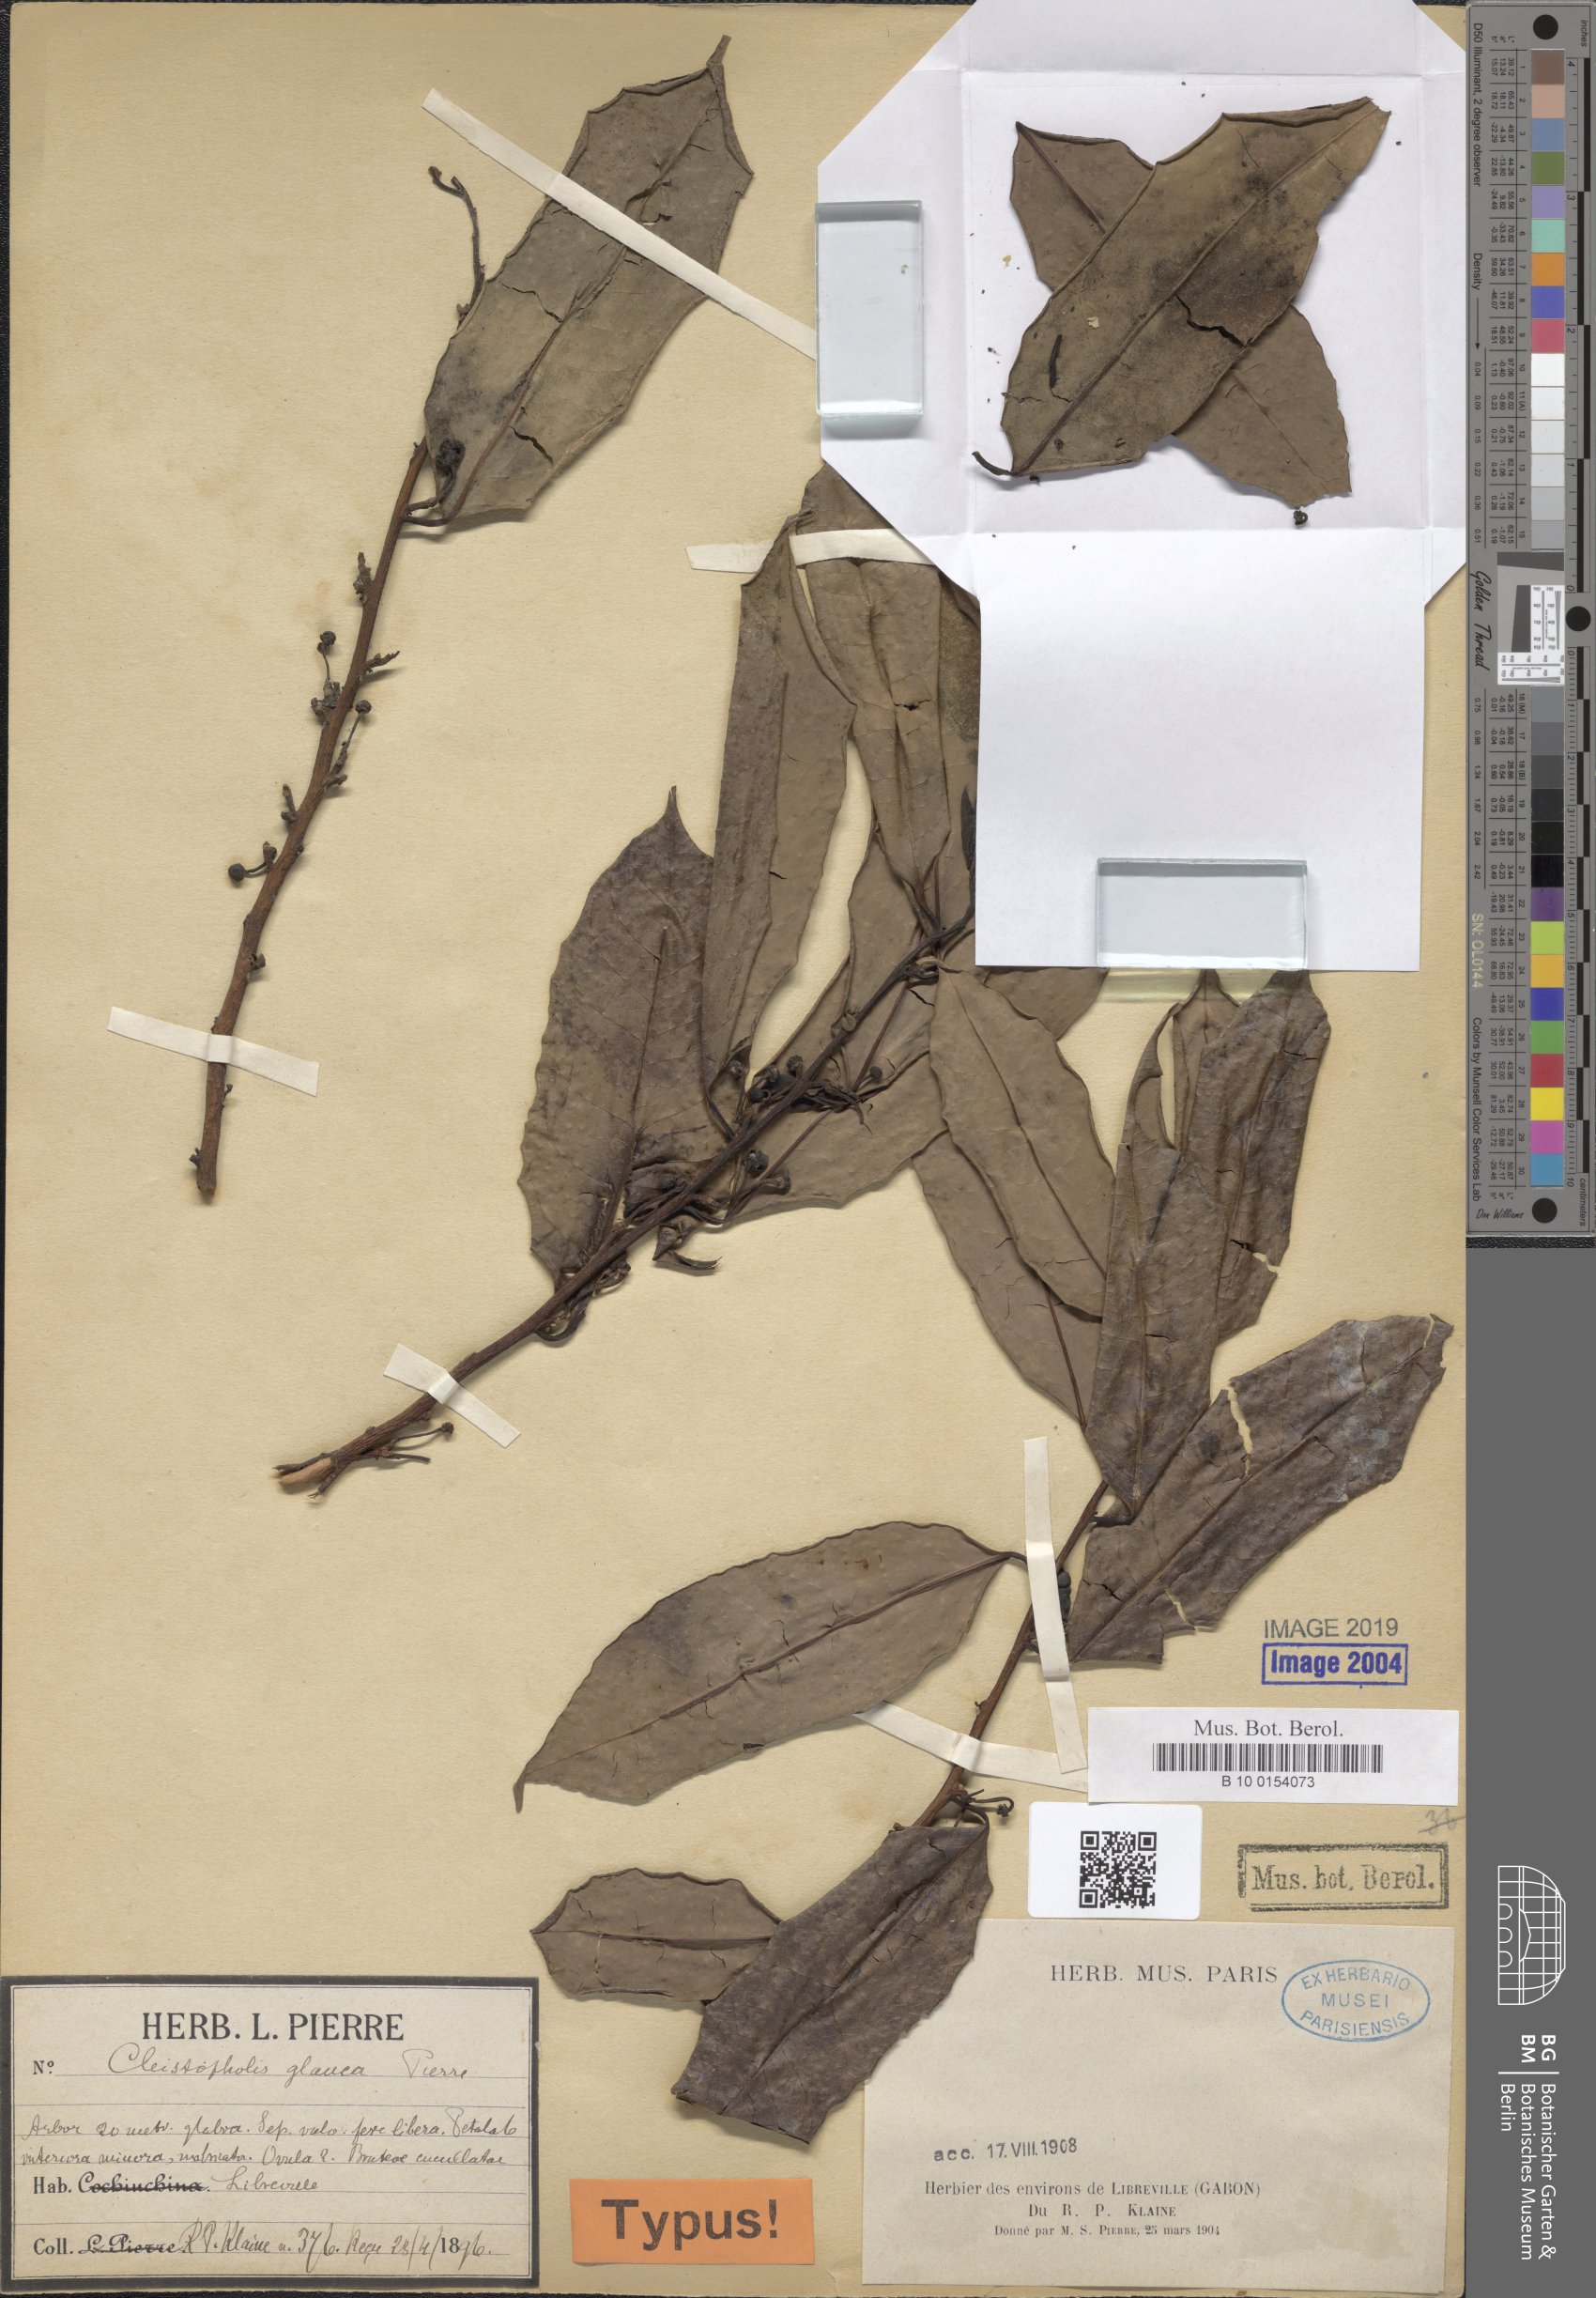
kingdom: Plantae
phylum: Tracheophyta
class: Magnoliopsida
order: Magnoliales
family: Annonaceae
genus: Cleistopholis
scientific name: Cleistopholis
